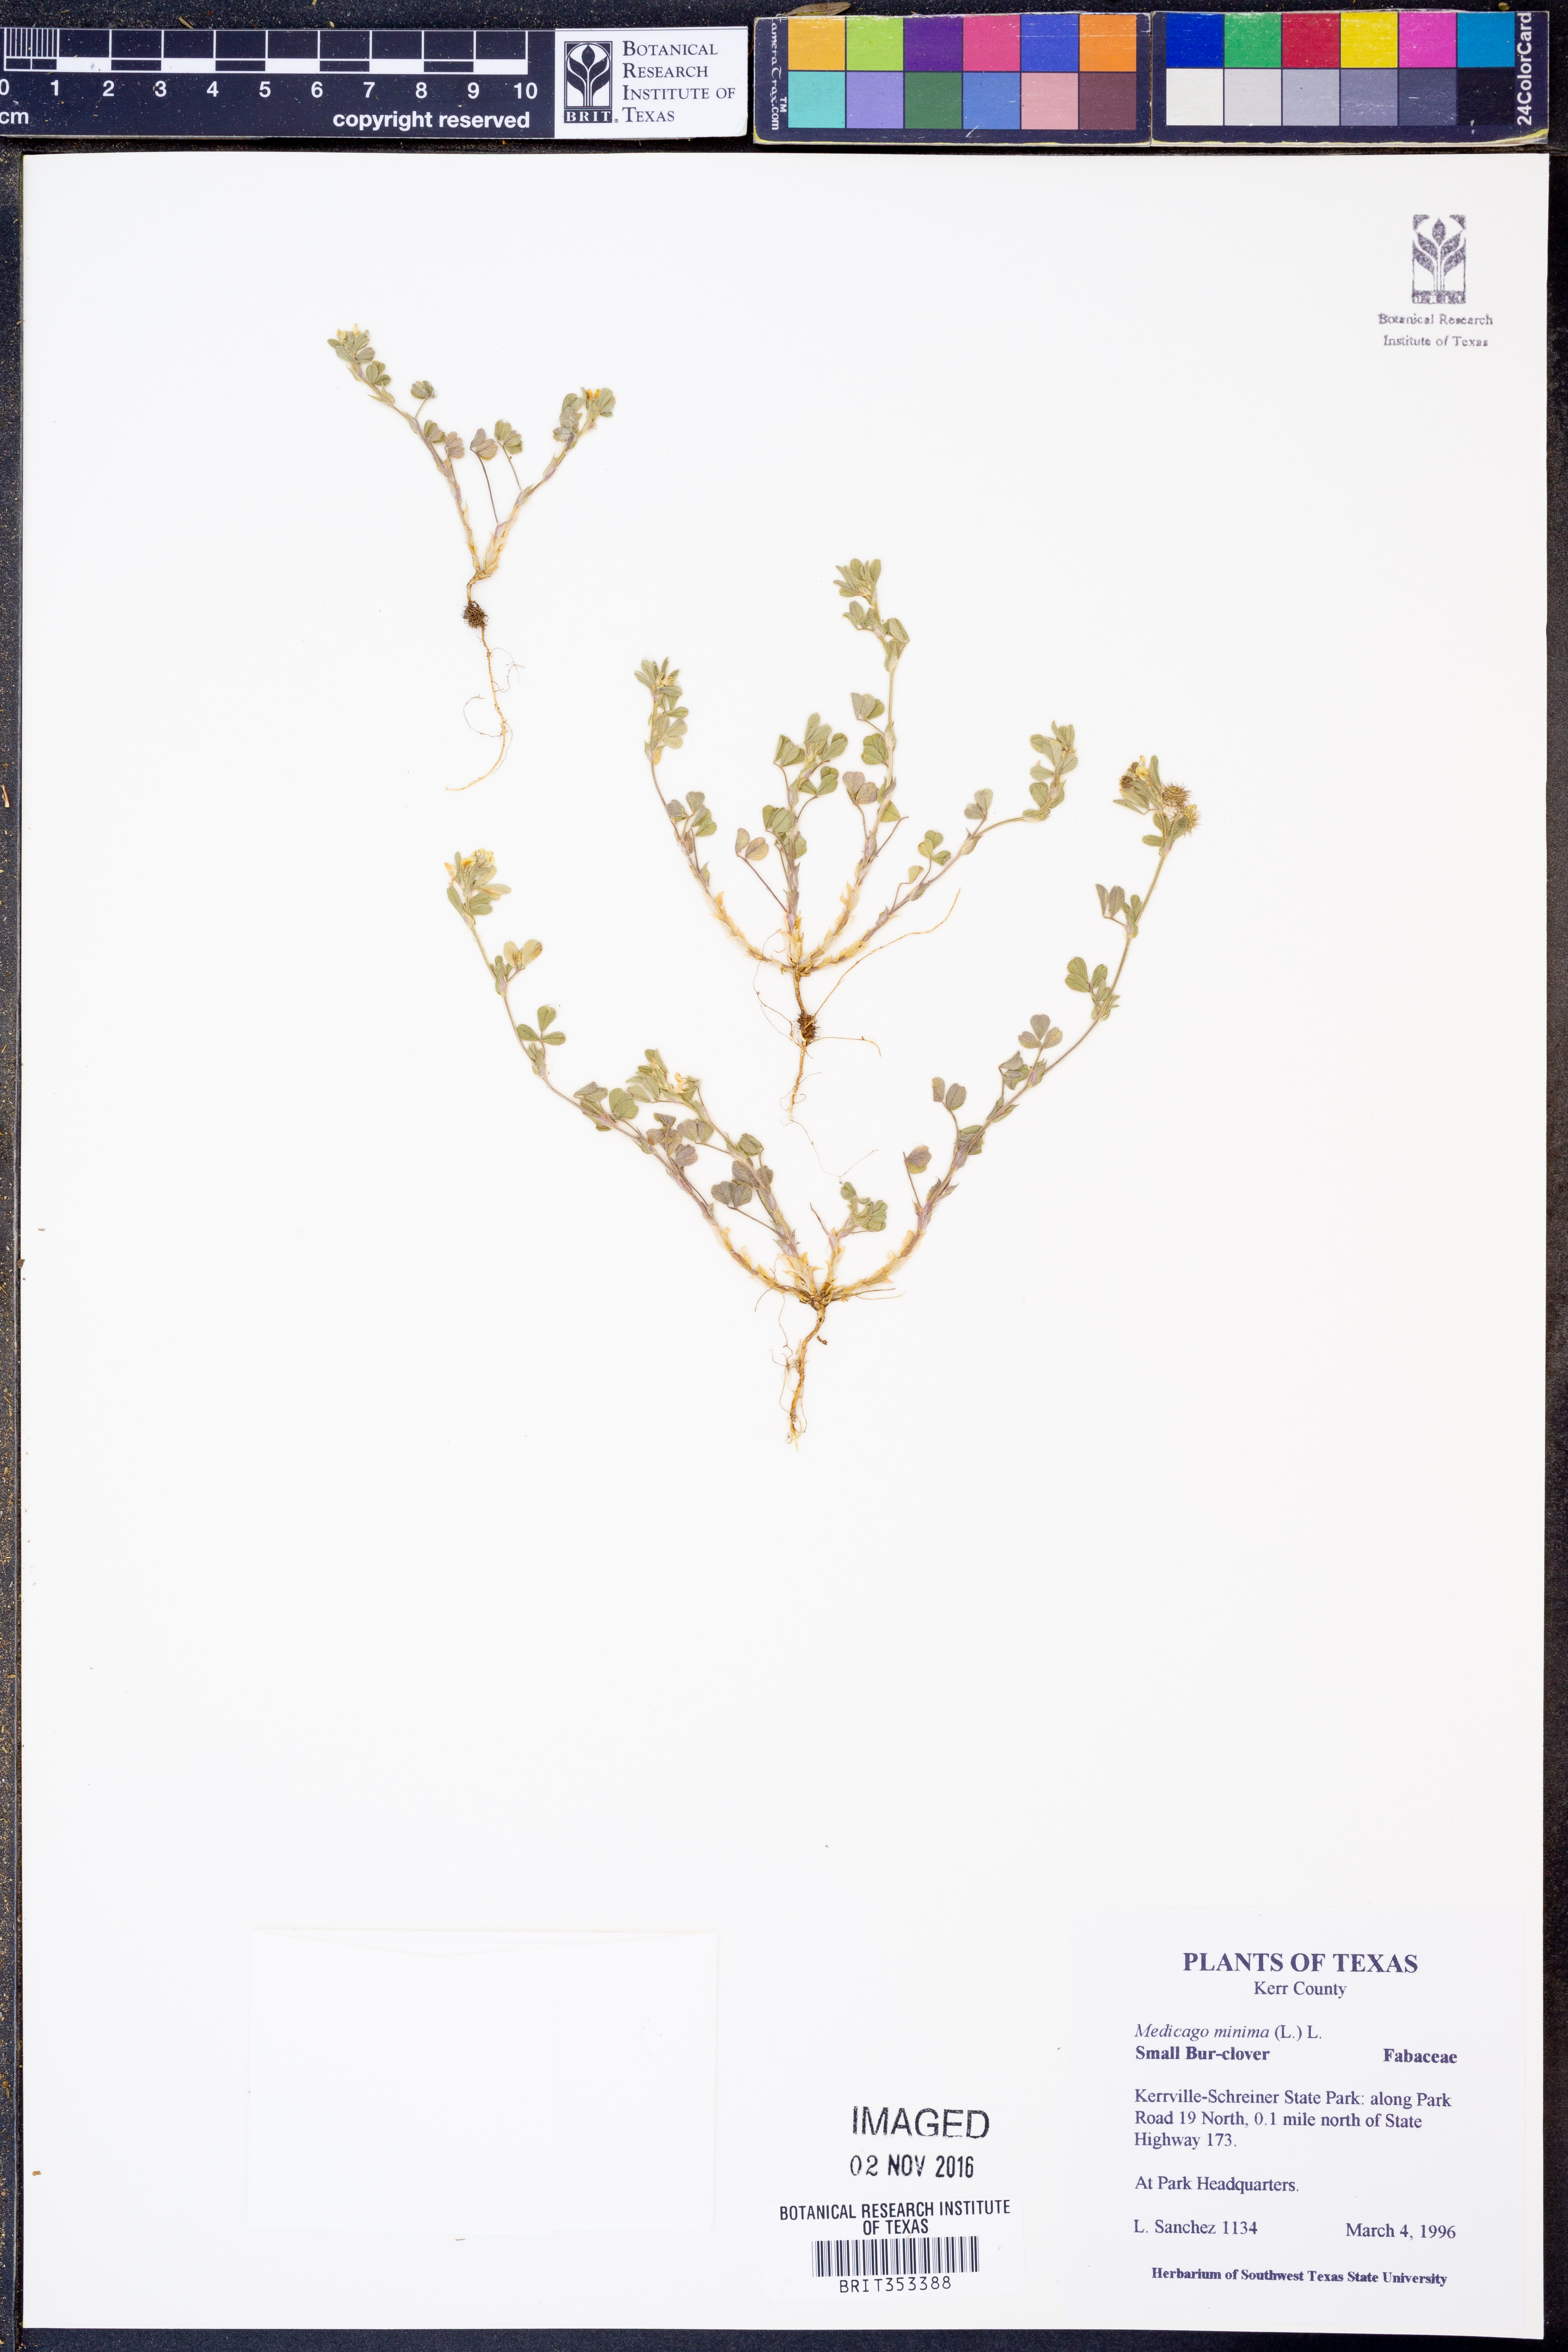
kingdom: Plantae
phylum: Tracheophyta
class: Magnoliopsida
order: Fabales
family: Fabaceae
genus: Medicago
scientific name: Medicago minima
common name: Little bur-clover
